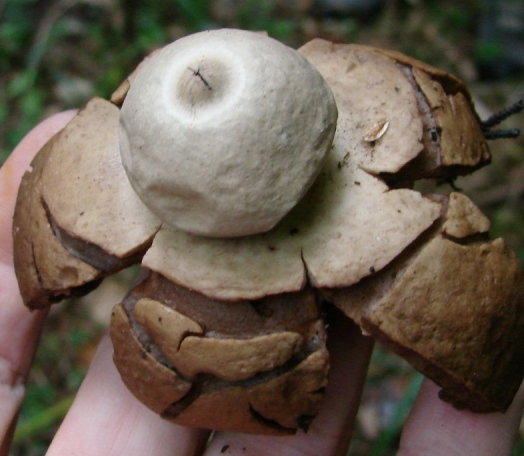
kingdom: Fungi
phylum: Basidiomycota
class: Agaricomycetes
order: Geastrales
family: Geastraceae
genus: Geastrum
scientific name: Geastrum michelianum
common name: kødet stjernebold
